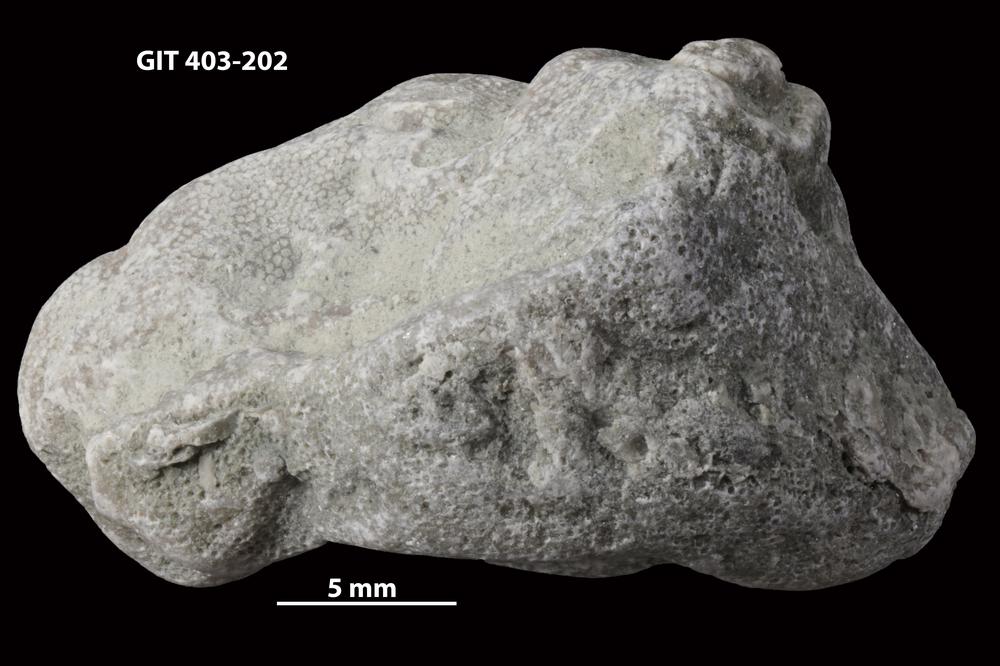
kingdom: Animalia
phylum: Bryozoa
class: Stenolaemata
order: Cystoporida
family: Fistuliporidae
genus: Fistulipora
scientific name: Fistulipora przhidolensis
